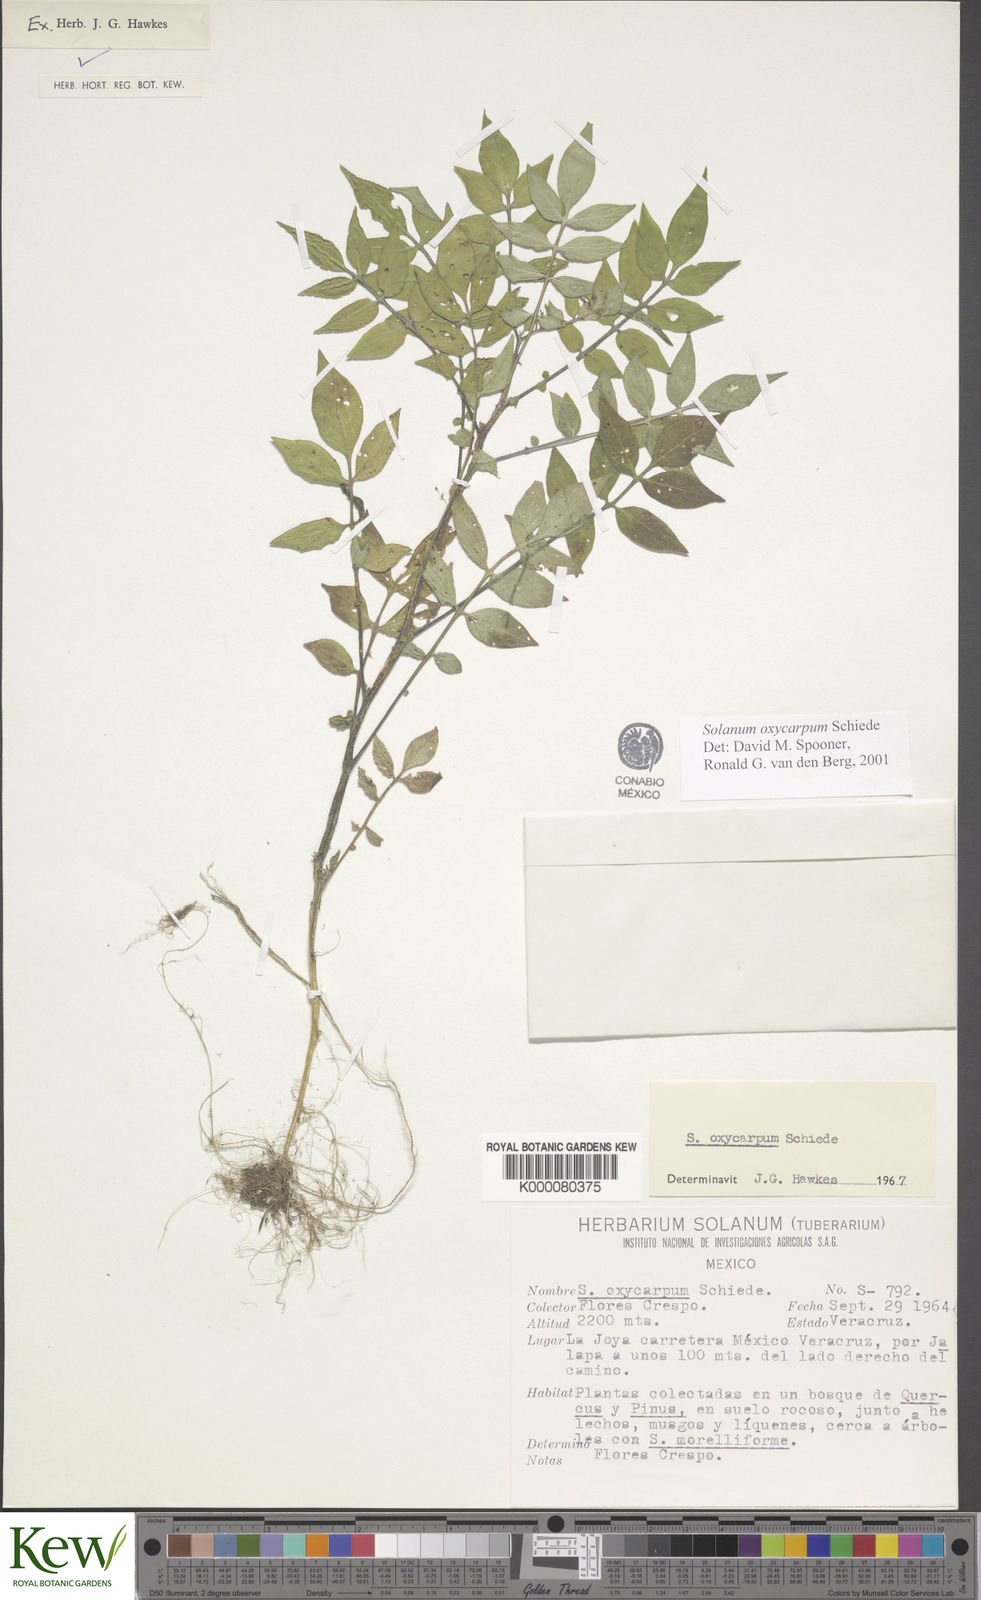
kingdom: Plantae
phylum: Tracheophyta
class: Magnoliopsida
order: Solanales
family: Solanaceae
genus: Solanum
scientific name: Solanum oxycarpum
